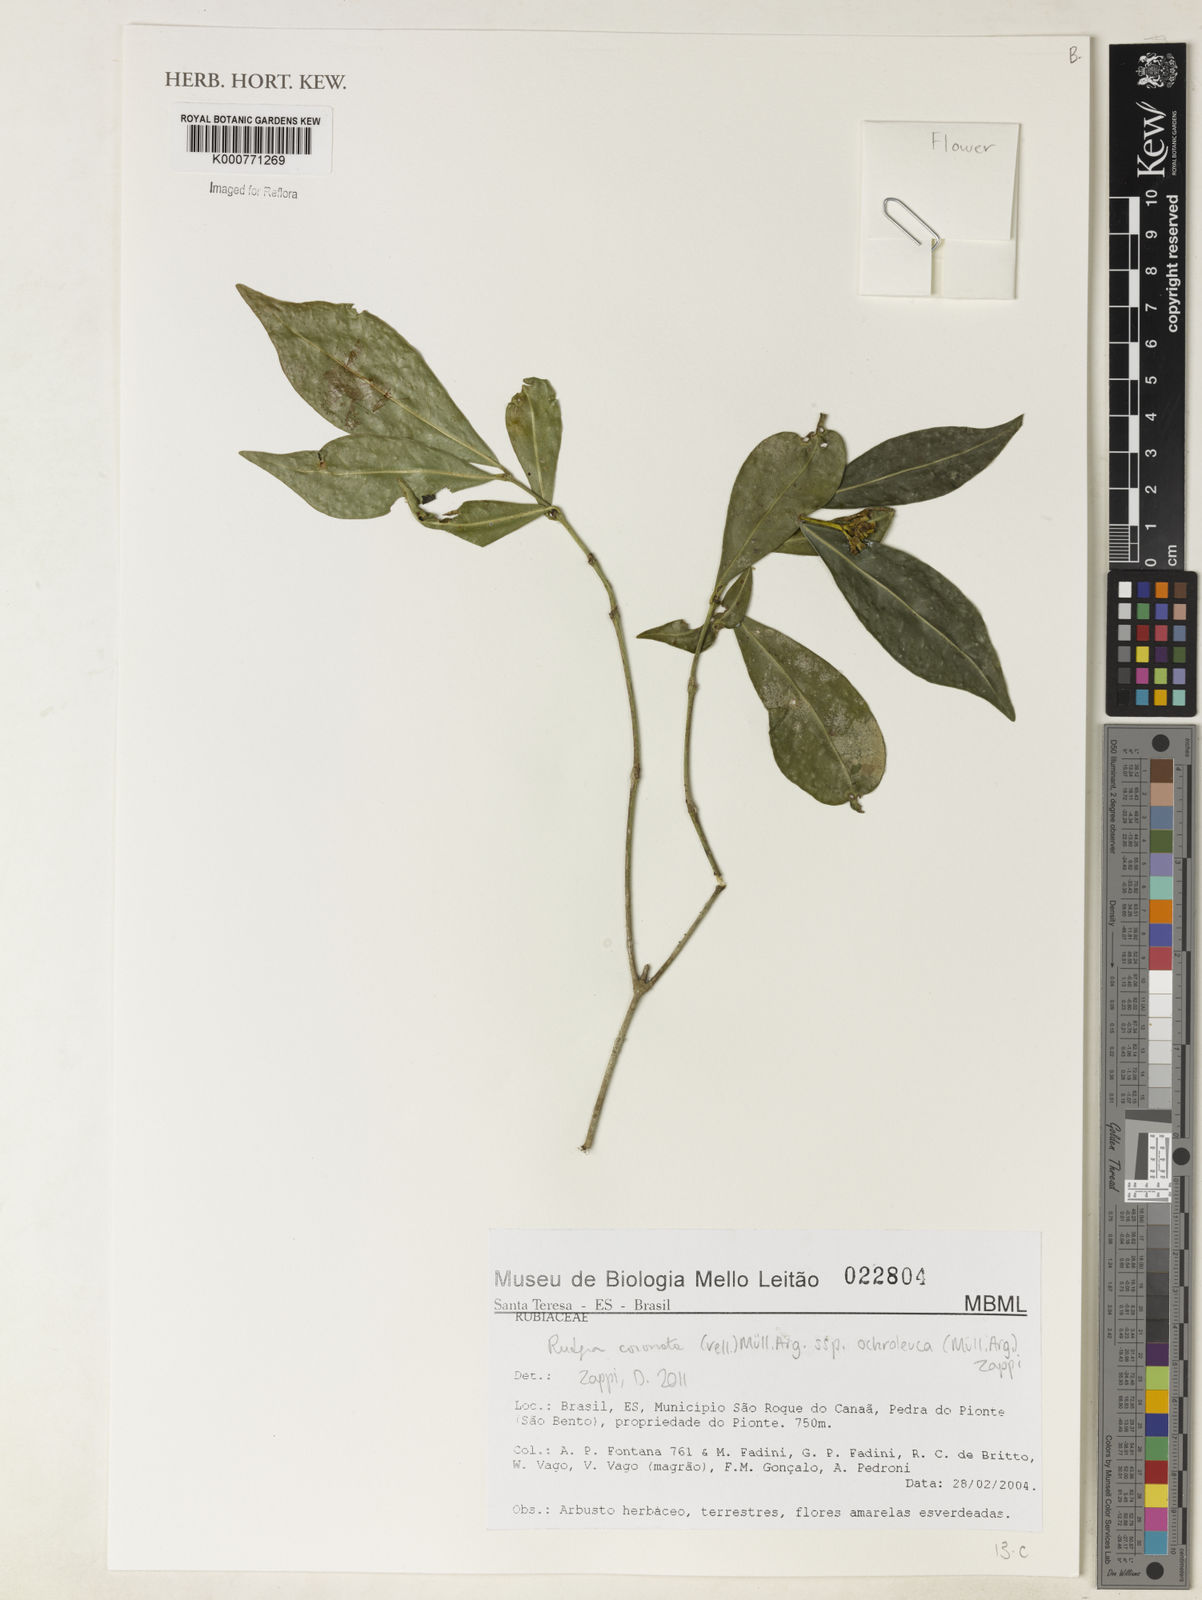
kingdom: Plantae
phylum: Tracheophyta
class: Magnoliopsida
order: Gentianales
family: Rubiaceae
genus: Rudgea
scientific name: Rudgea
